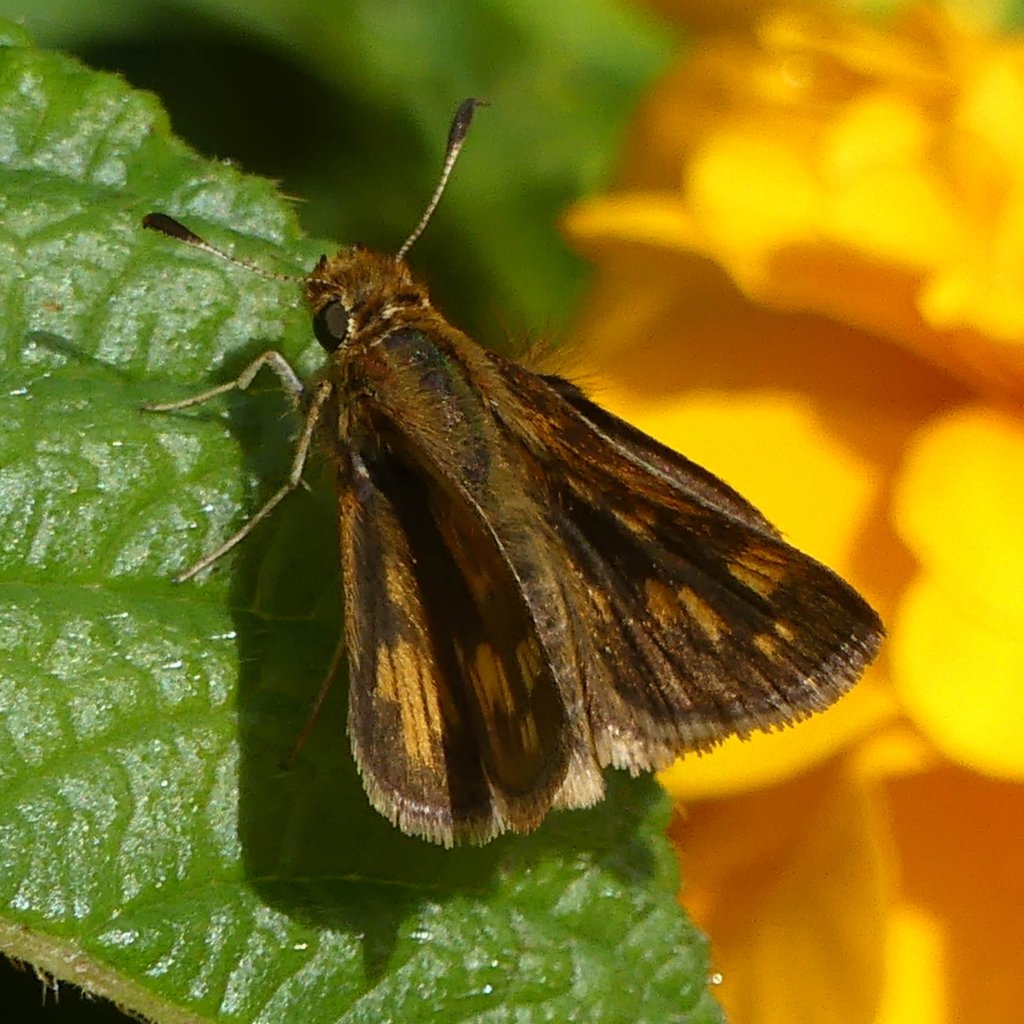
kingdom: Animalia
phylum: Arthropoda
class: Insecta
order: Lepidoptera
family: Hesperiidae
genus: Polites
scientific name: Polites coras
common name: Peck's Skipper
